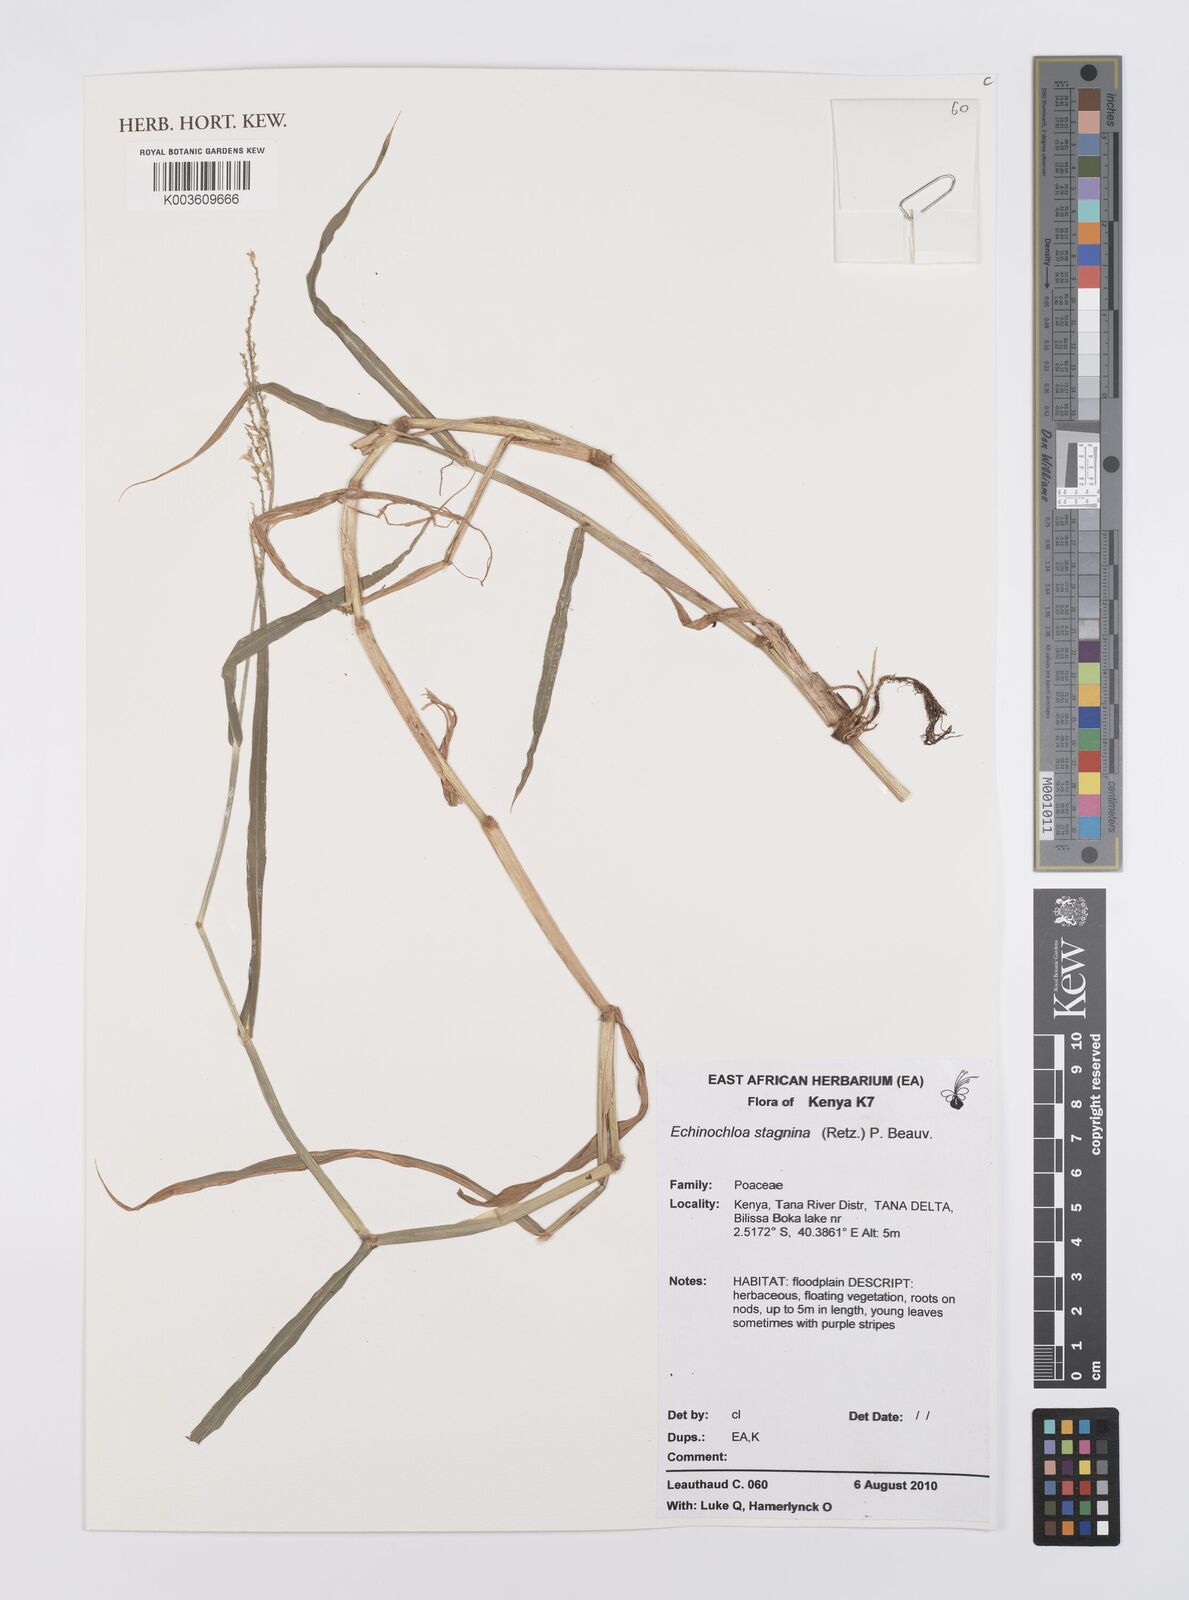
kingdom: Plantae
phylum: Tracheophyta
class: Liliopsida
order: Poales
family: Poaceae
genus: Echinochloa
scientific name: Echinochloa stagnina
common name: Burgu grass
